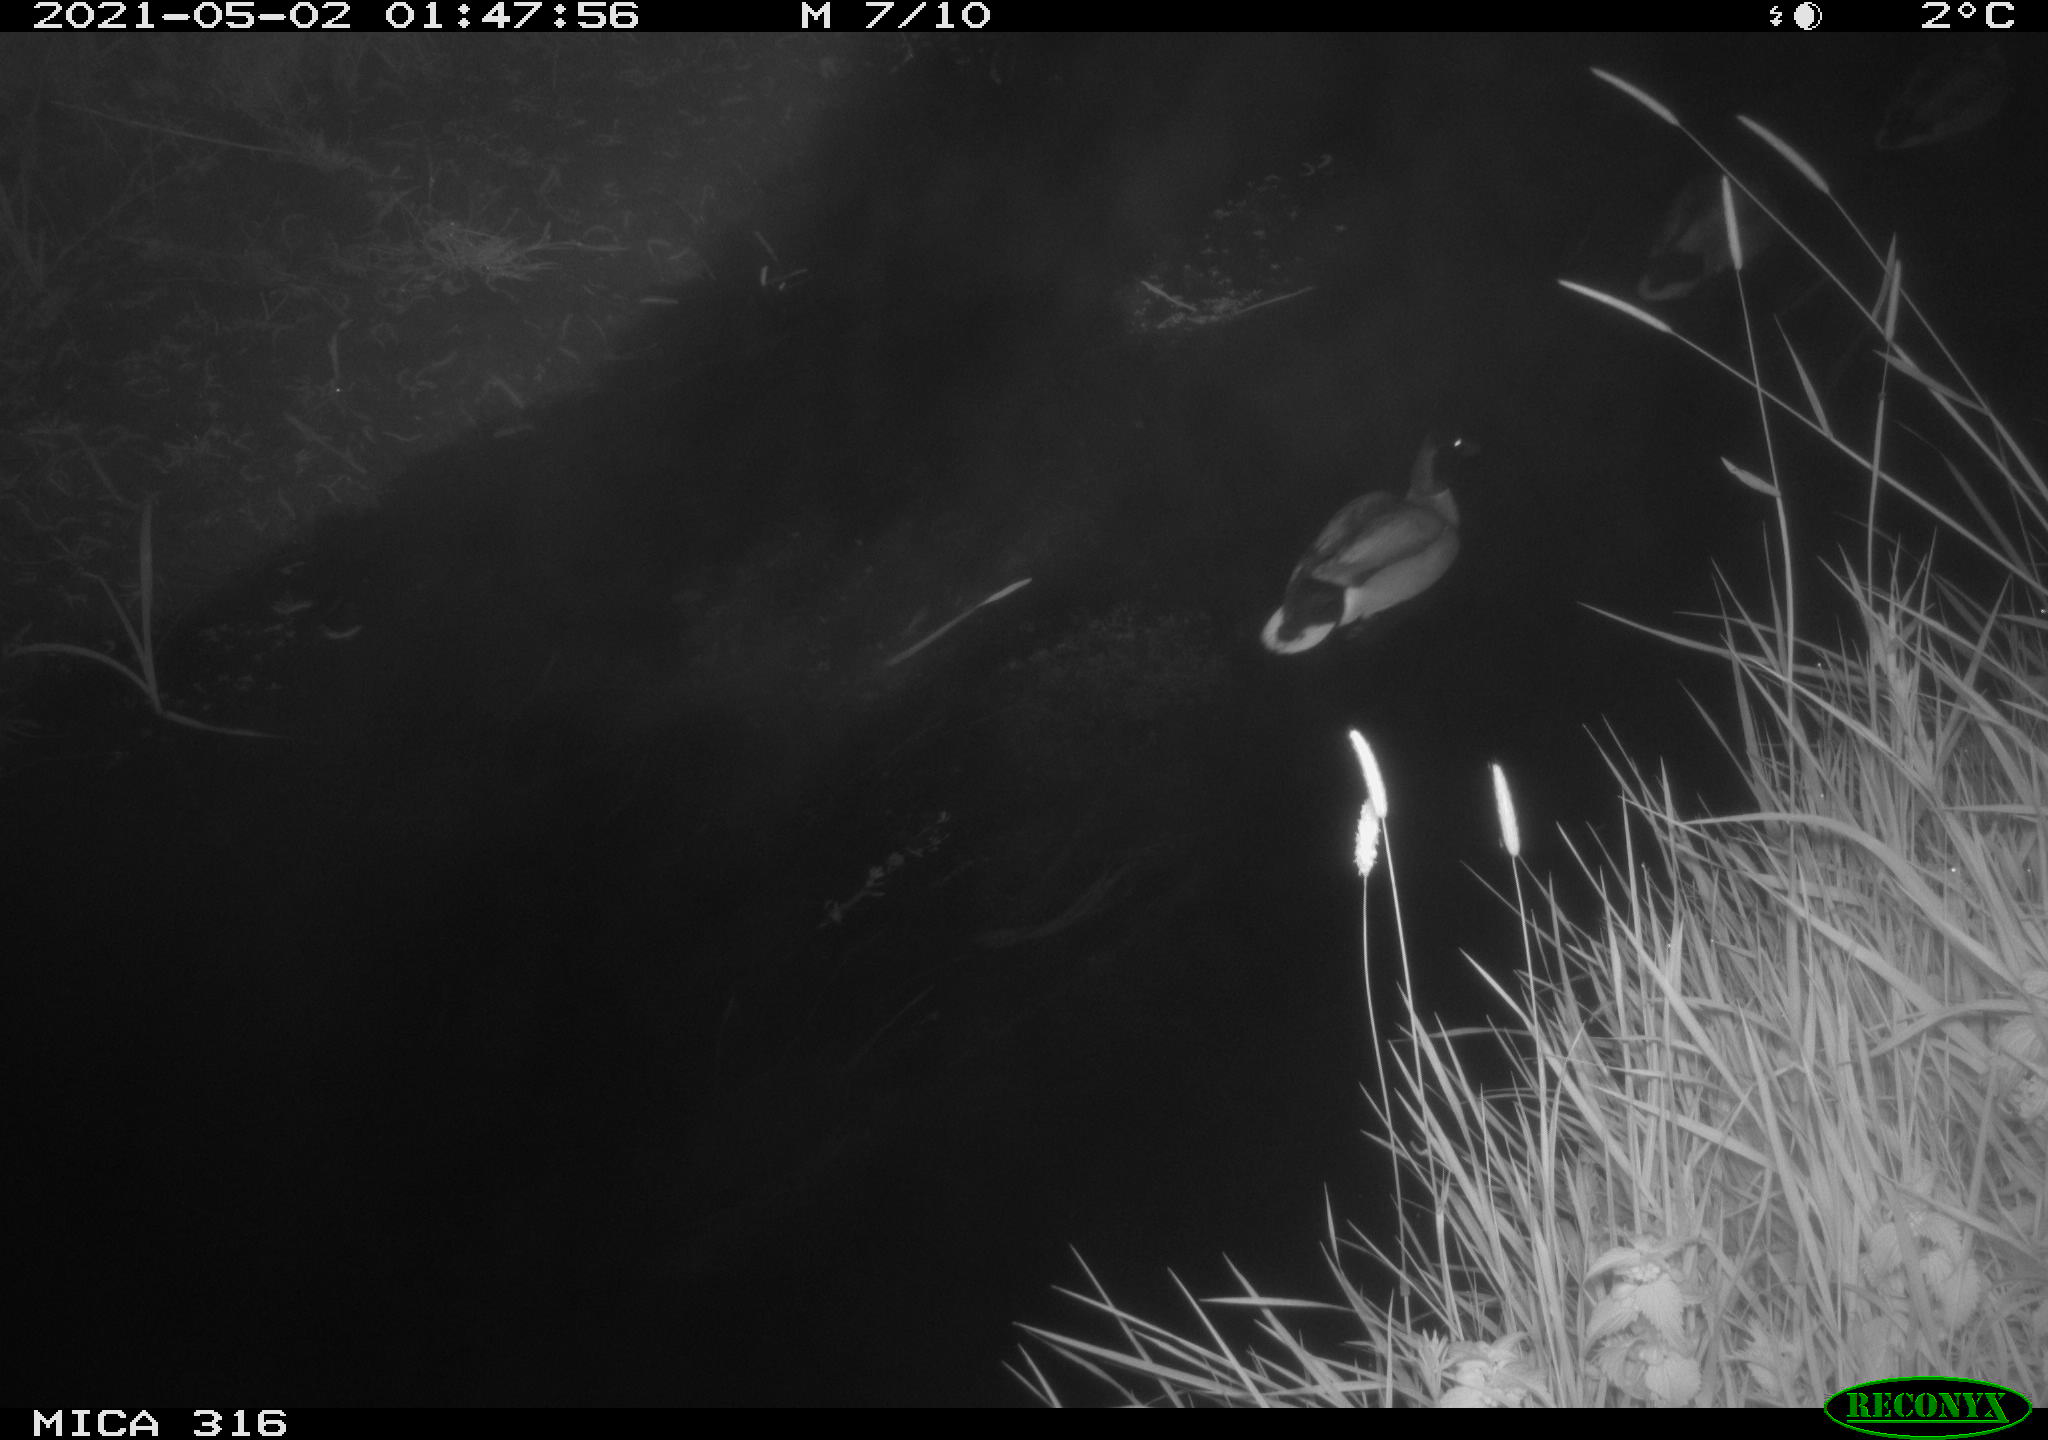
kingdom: Animalia
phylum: Chordata
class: Aves
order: Anseriformes
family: Anatidae
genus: Anas
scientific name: Anas platyrhynchos
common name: Mallard
